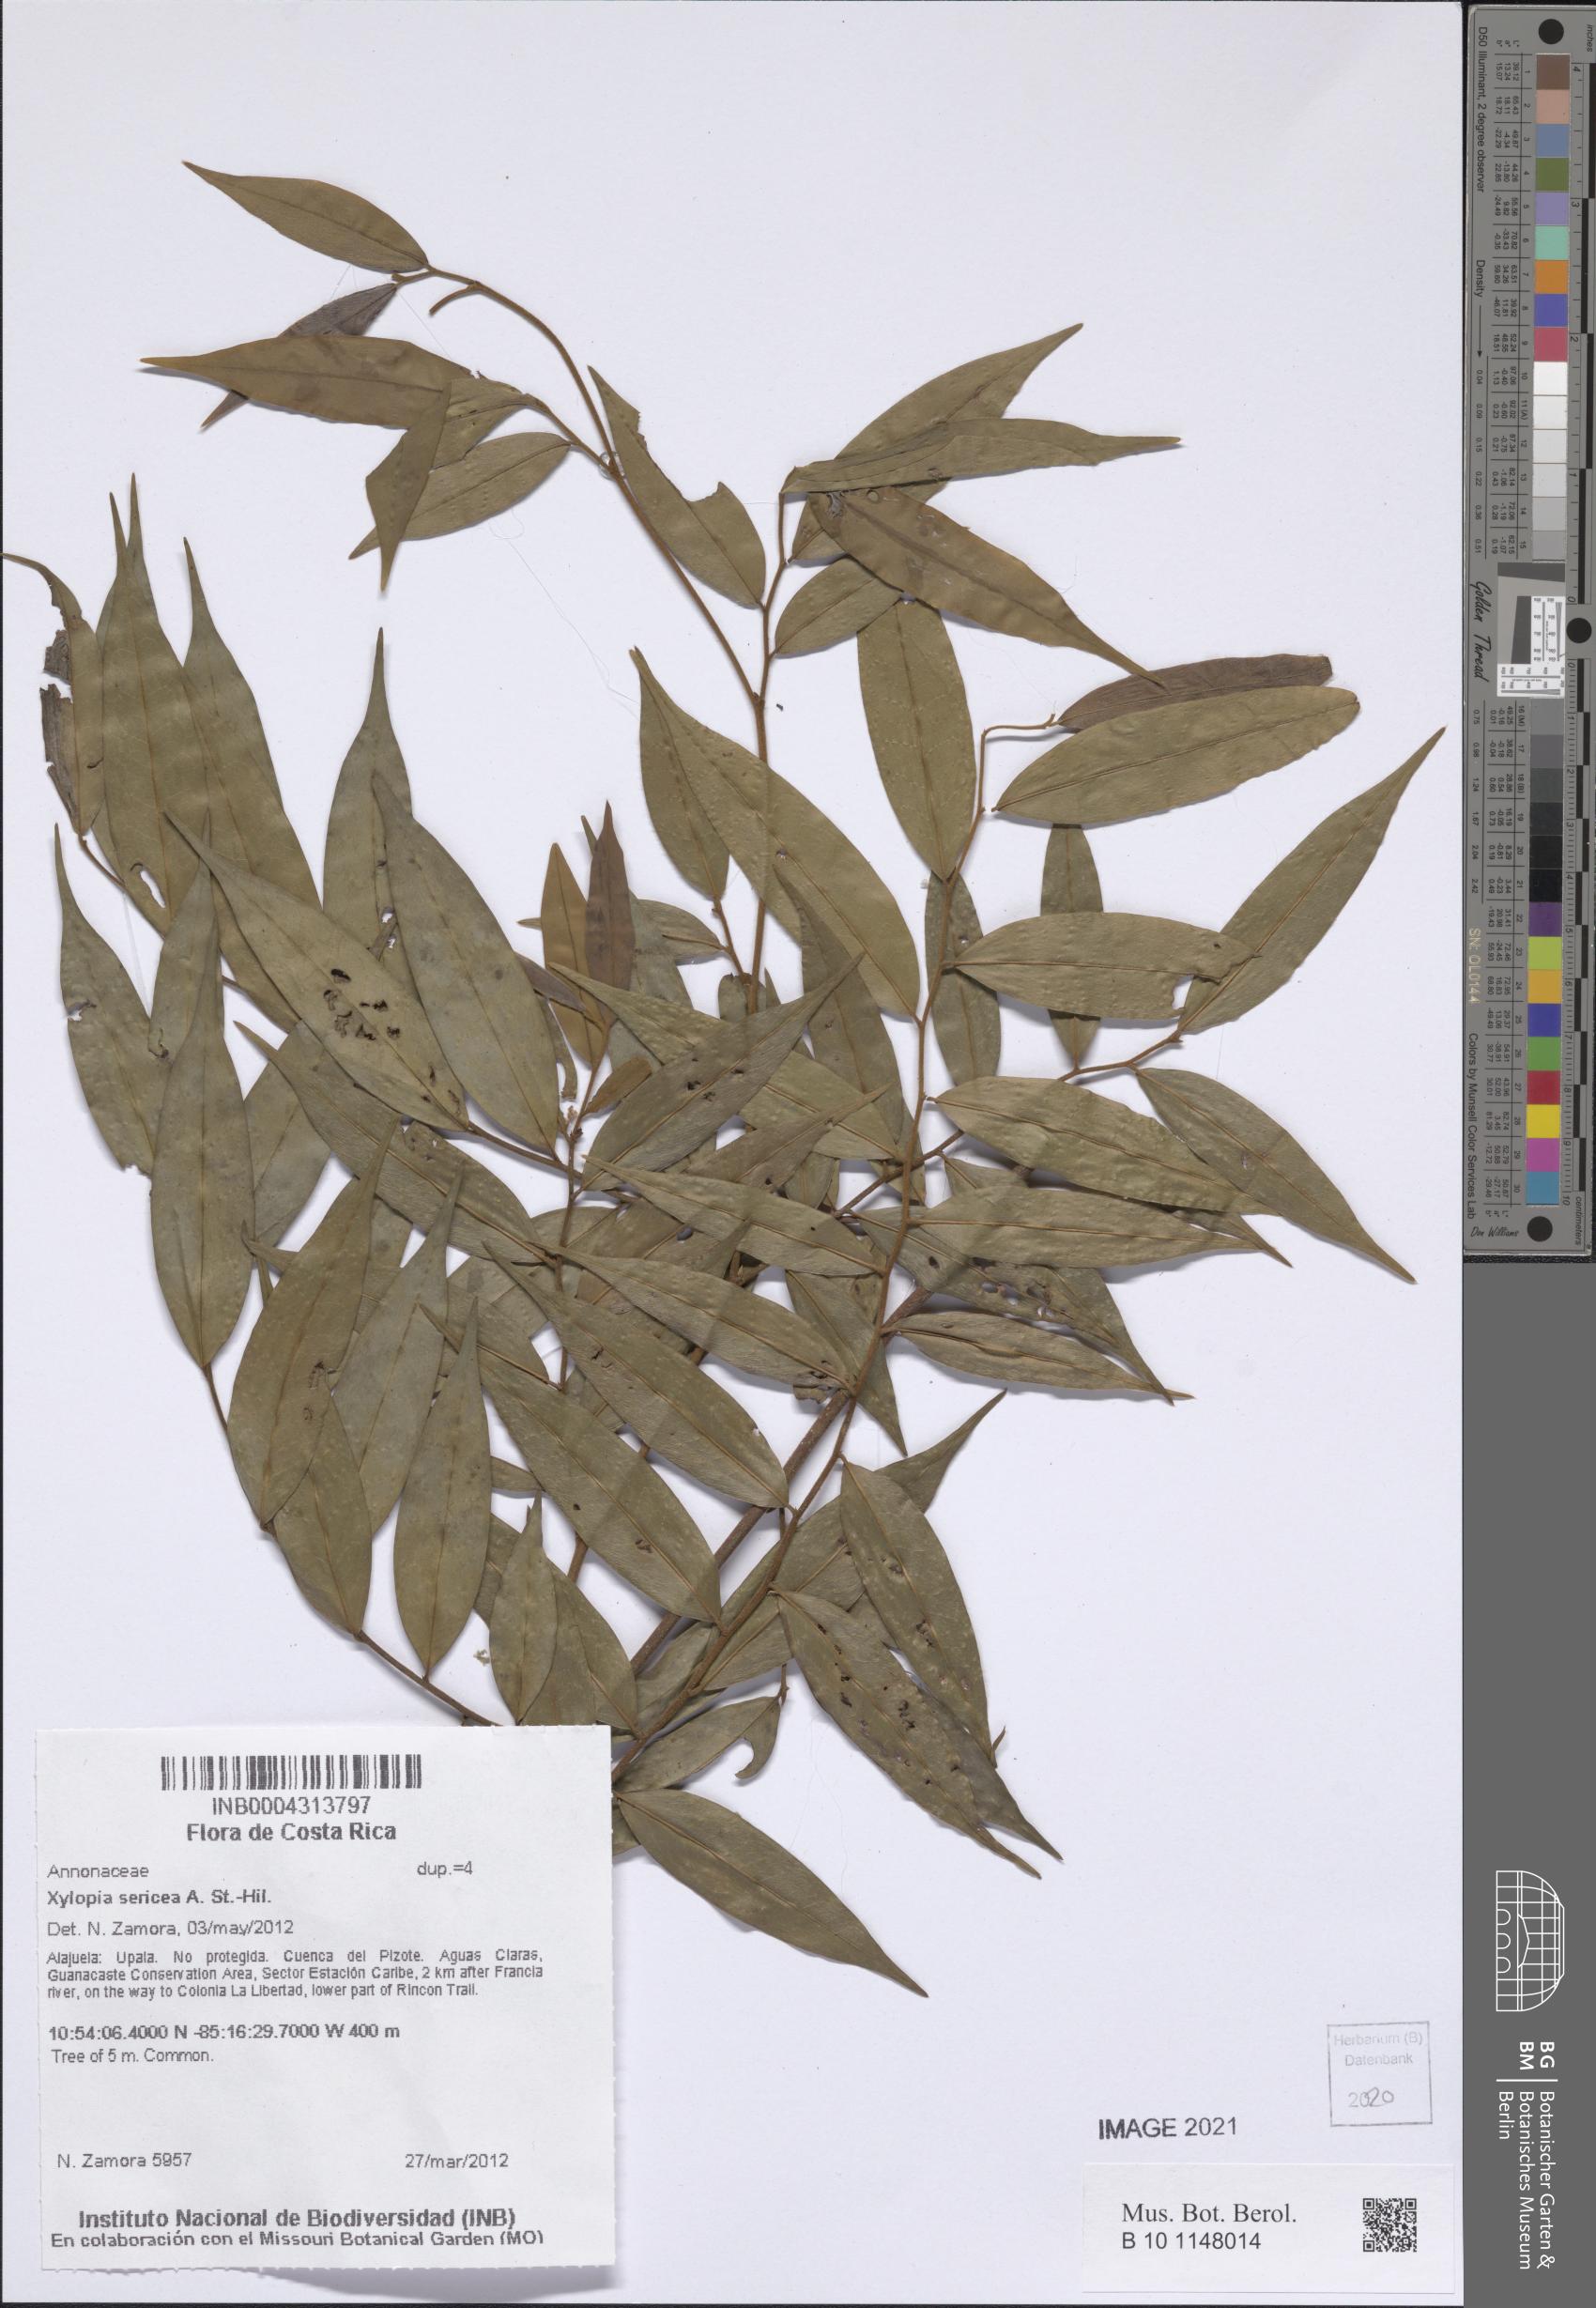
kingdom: Plantae
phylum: Tracheophyta
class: Magnoliopsida
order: Magnoliales
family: Annonaceae
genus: Xylopia
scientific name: Xylopia sericea
